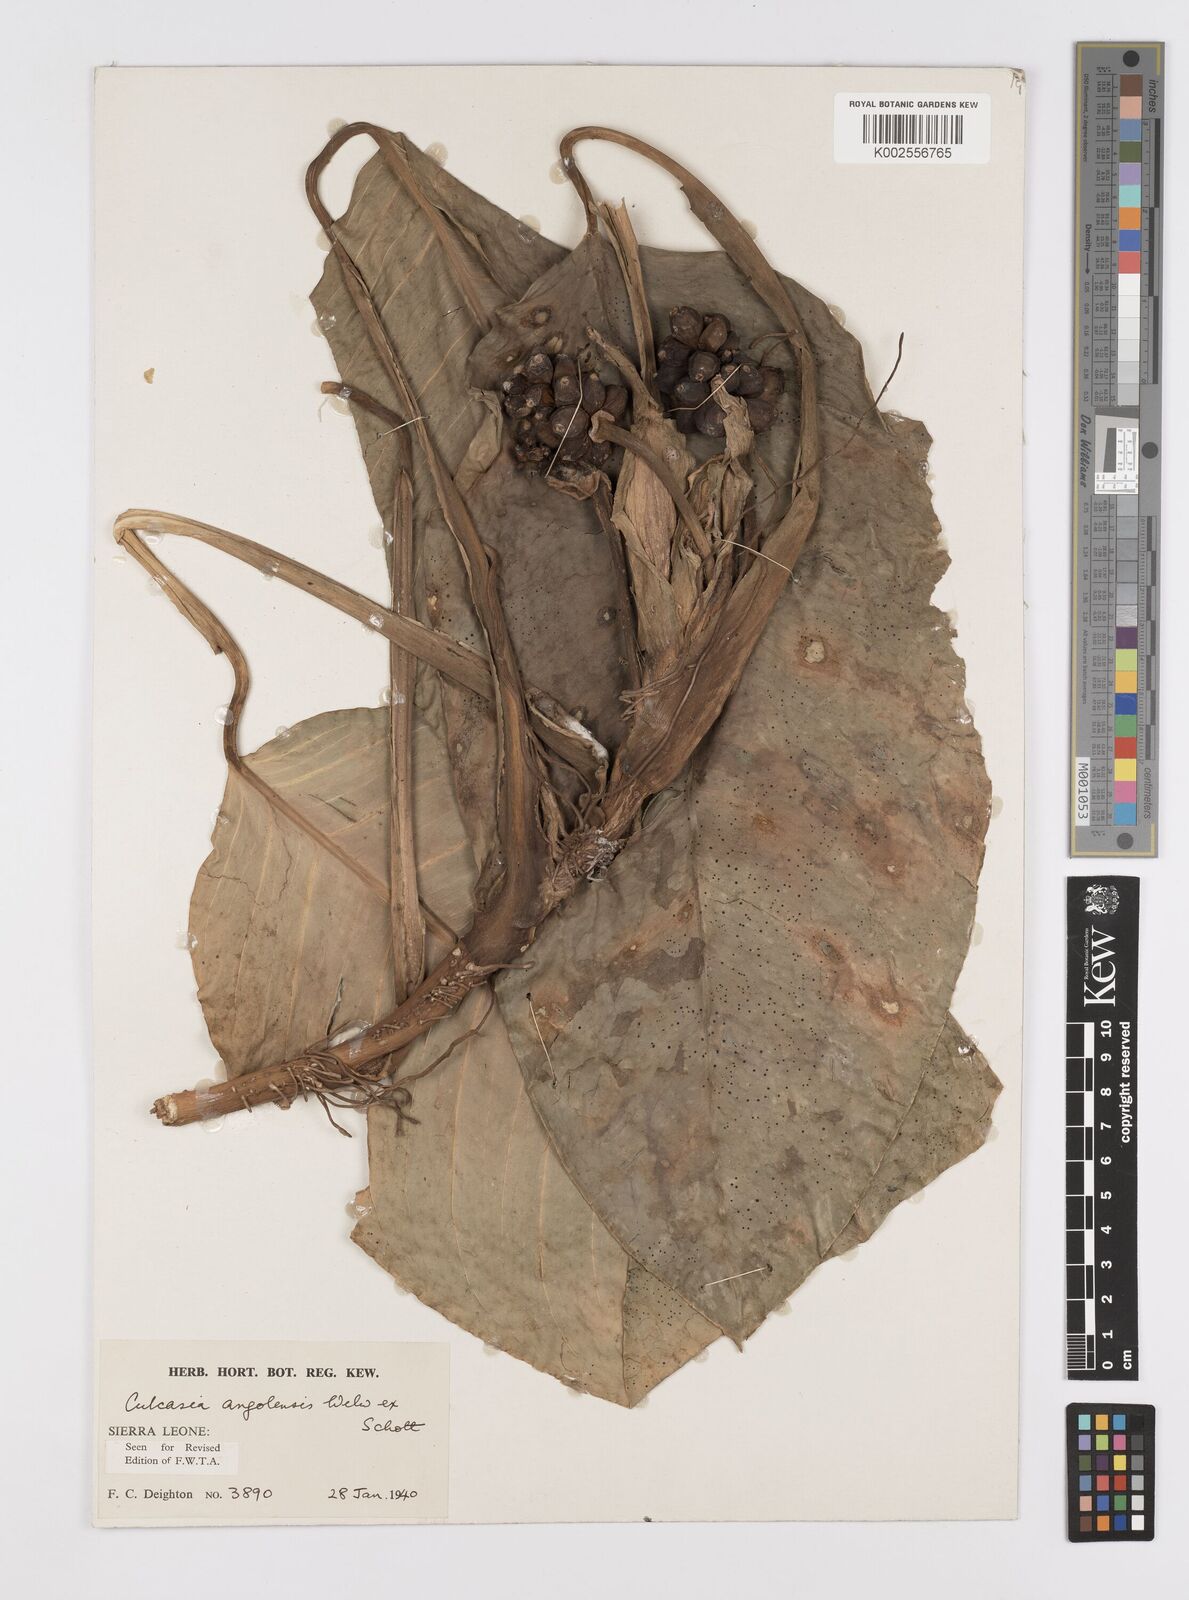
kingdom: Plantae
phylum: Tracheophyta
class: Liliopsida
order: Alismatales
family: Araceae
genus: Culcasia
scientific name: Culcasia angolensis
